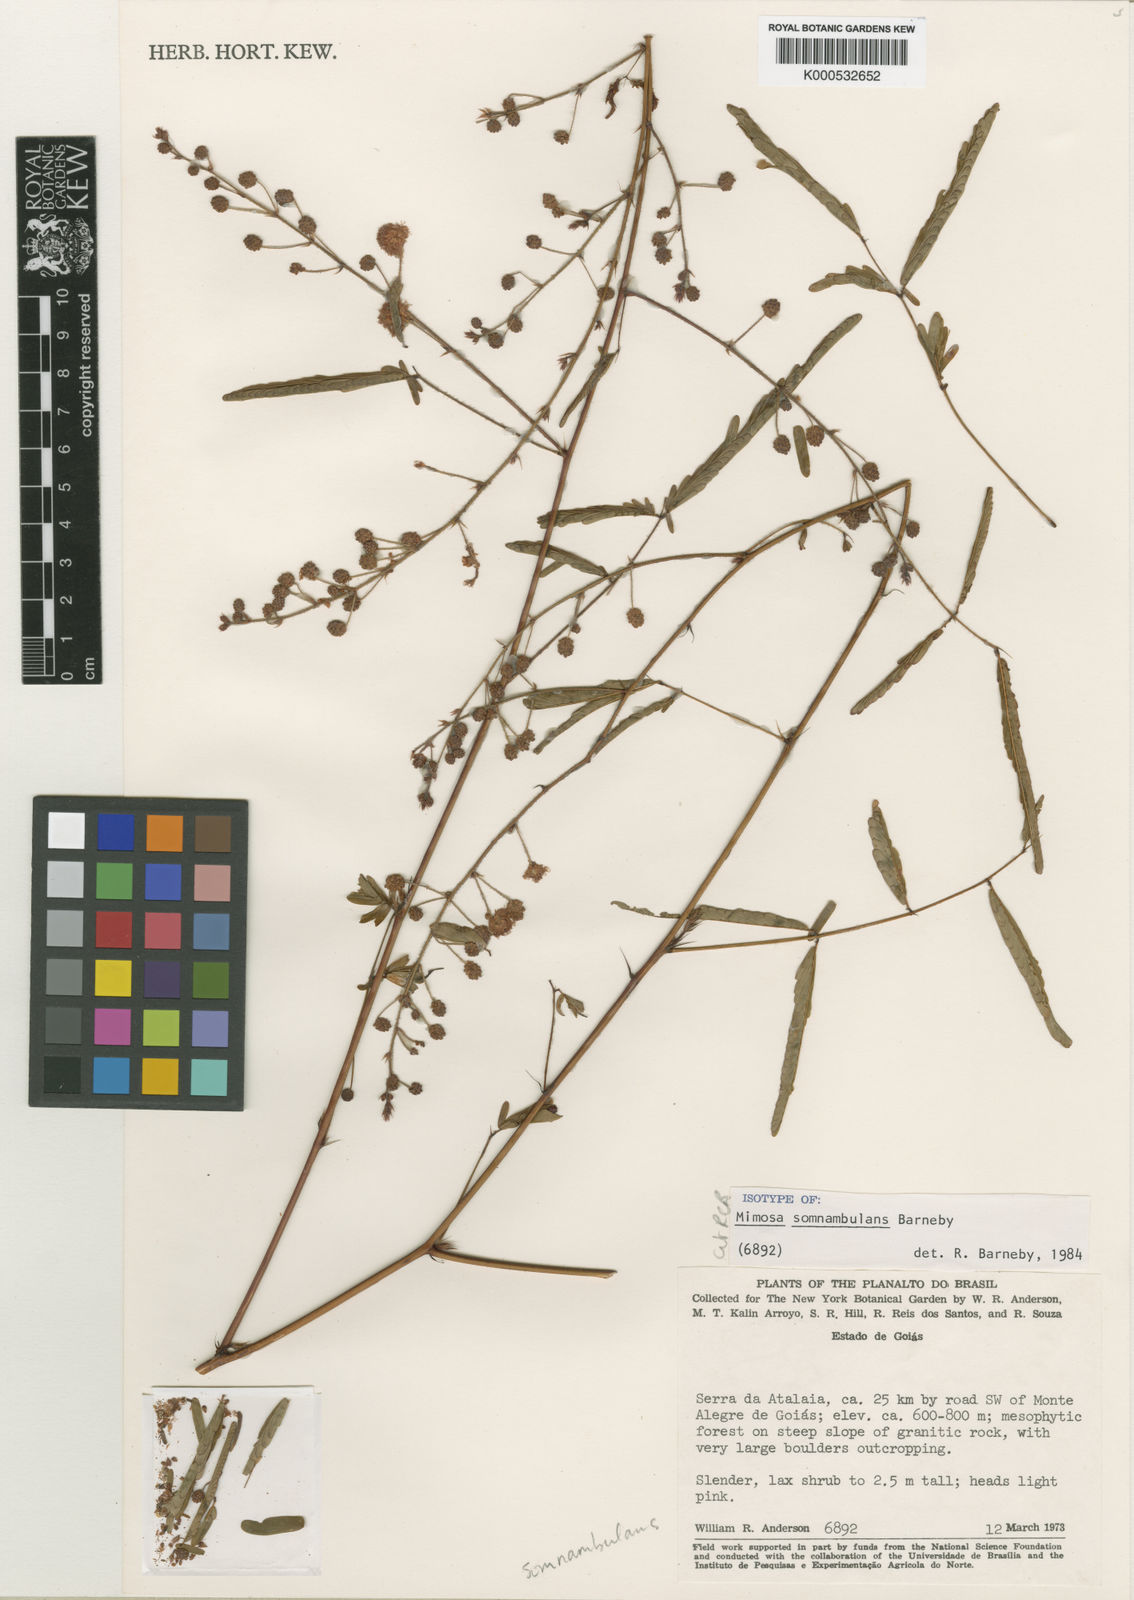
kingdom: Plantae
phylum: Tracheophyta
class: Magnoliopsida
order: Fabales
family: Fabaceae
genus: Mimosa
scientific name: Mimosa somnambulans
